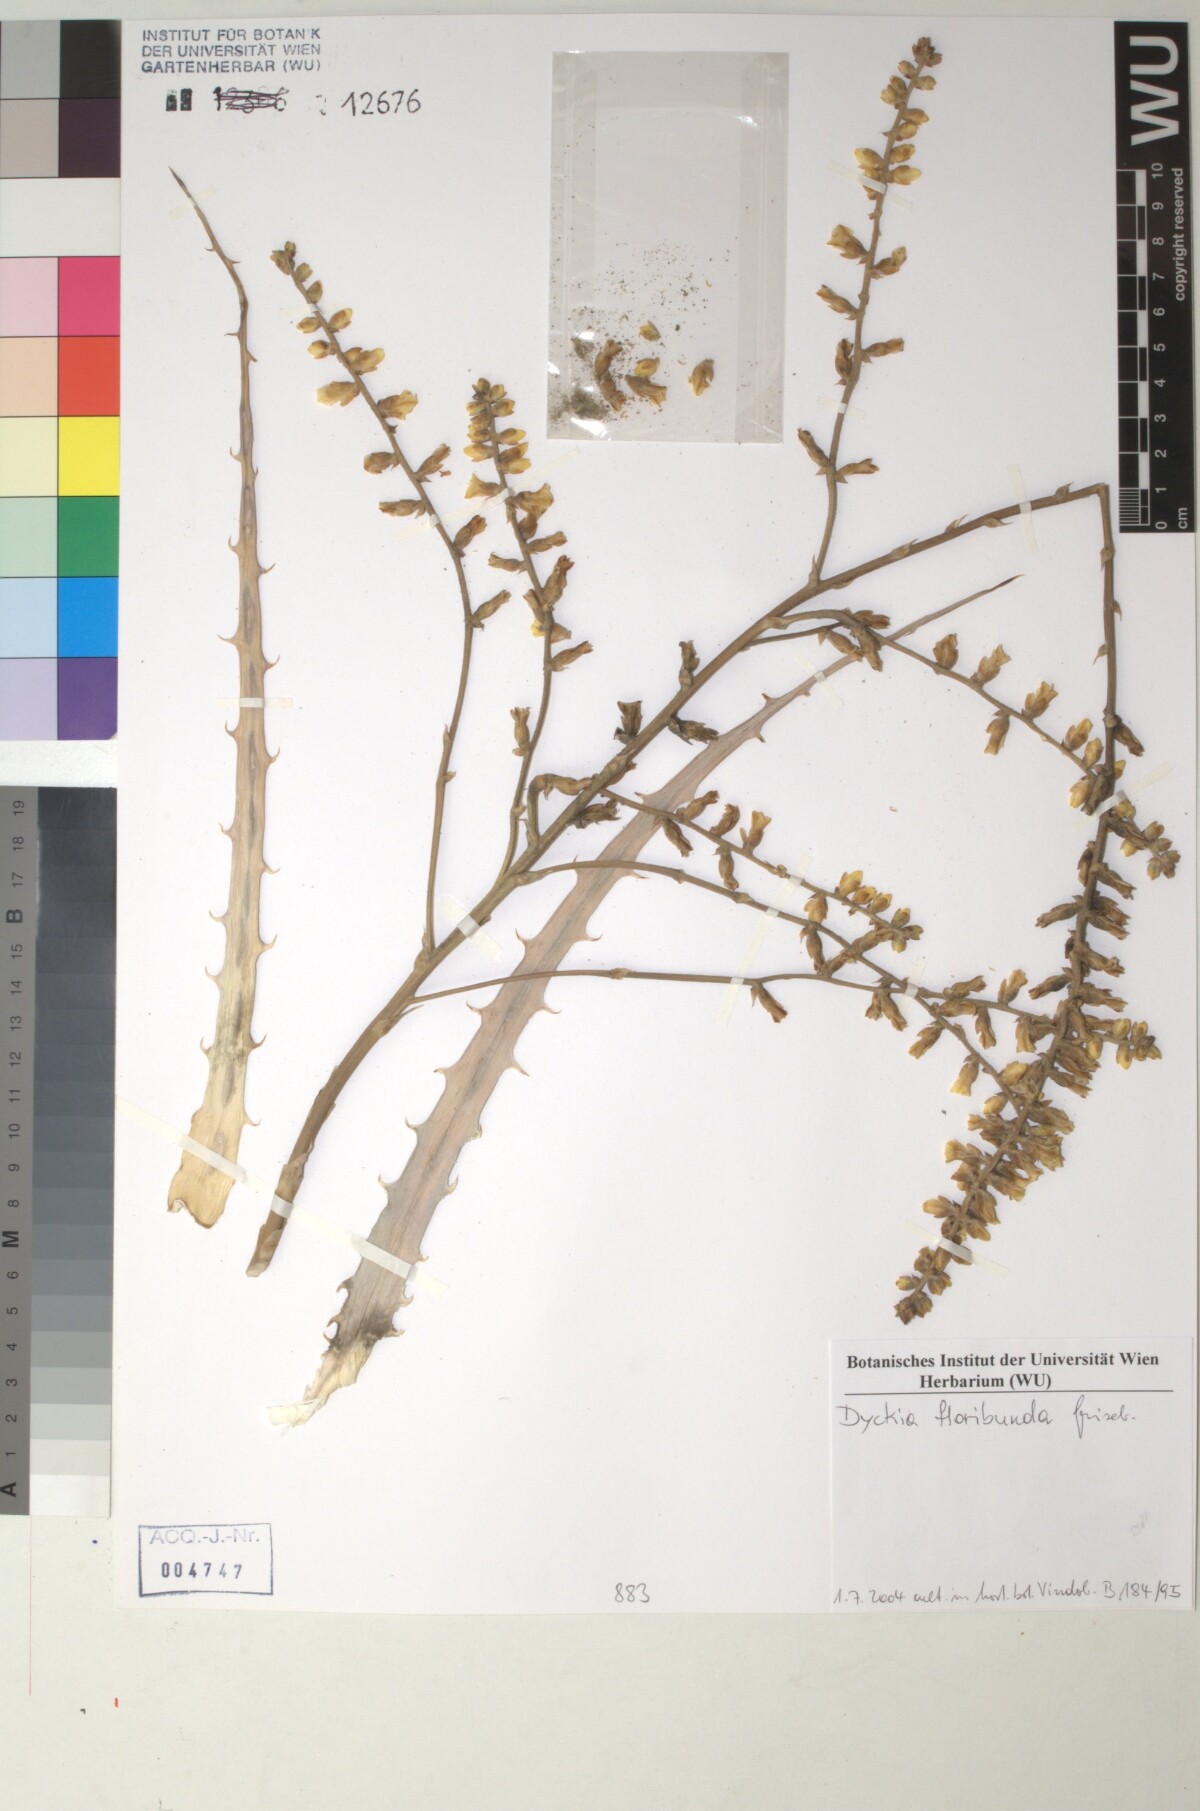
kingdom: Plantae
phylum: Tracheophyta
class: Liliopsida
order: Poales
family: Bromeliaceae
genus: Dyckia
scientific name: Dyckia floribunda
